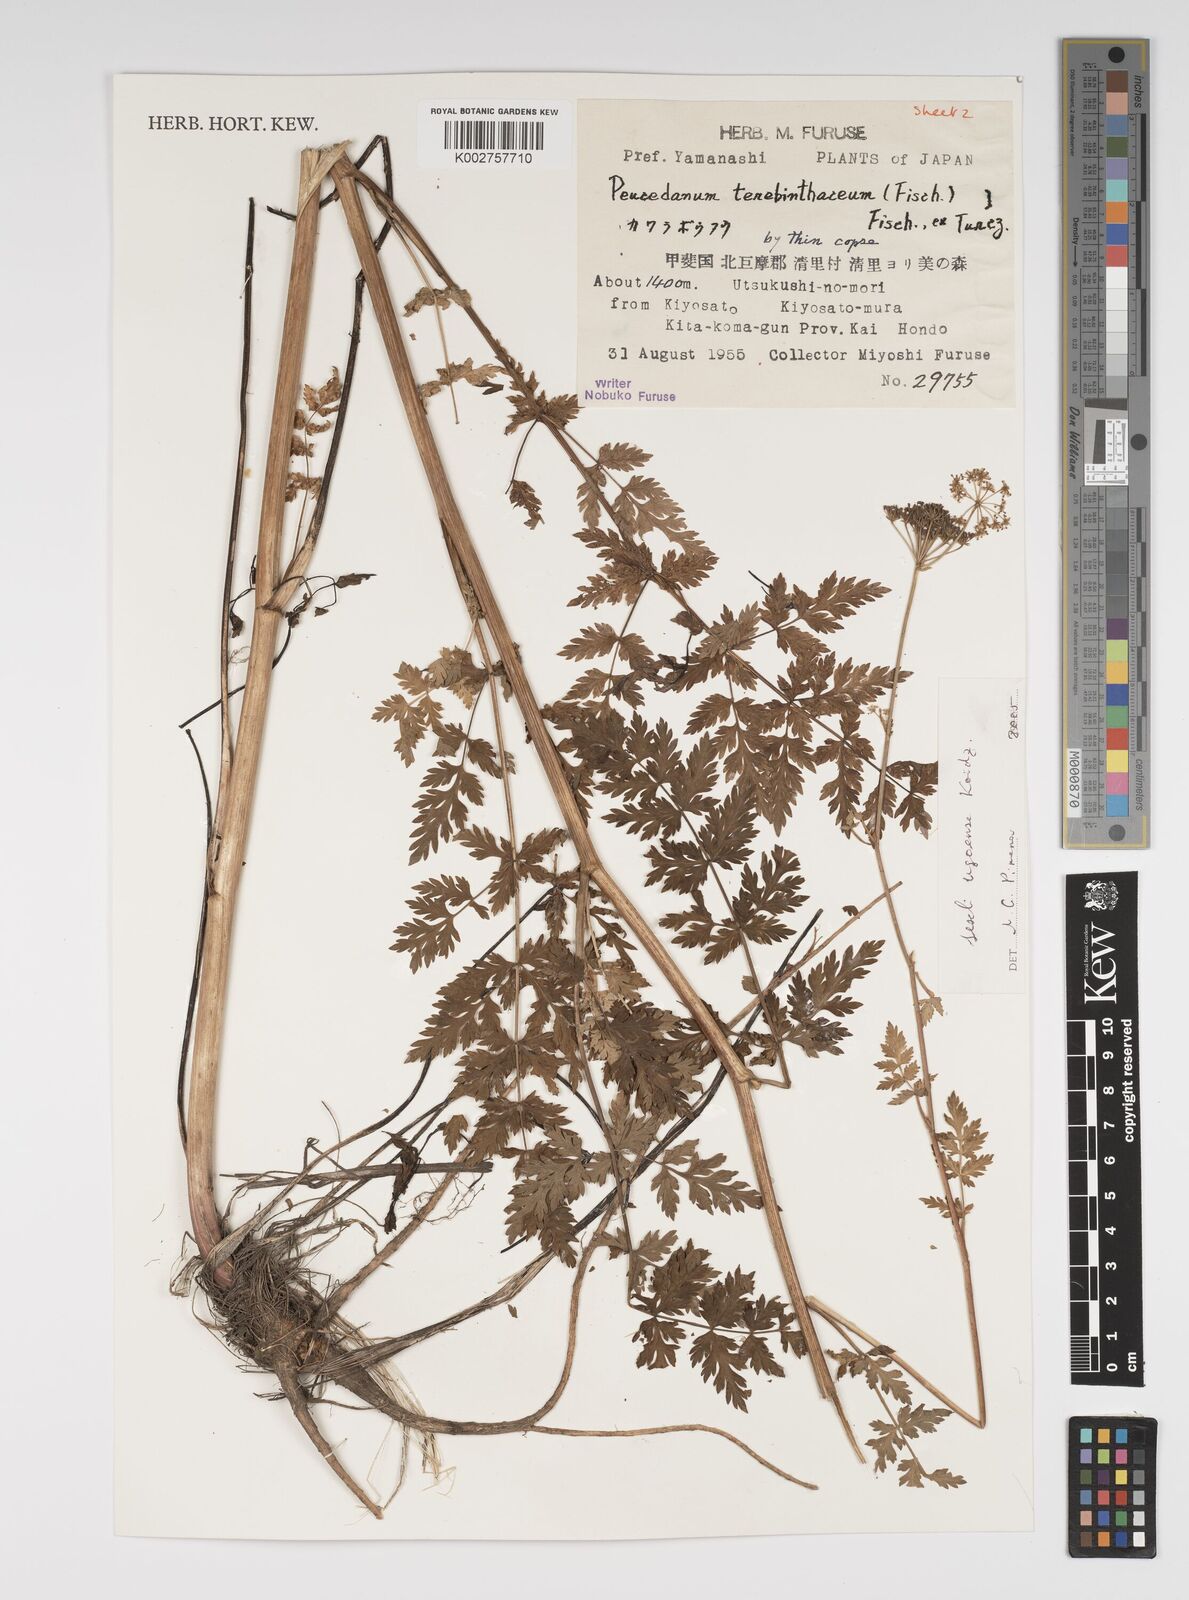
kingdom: Plantae
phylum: Tracheophyta
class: Magnoliopsida
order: Apiales
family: Apiaceae
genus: Seseli
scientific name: Seseli ugoense
